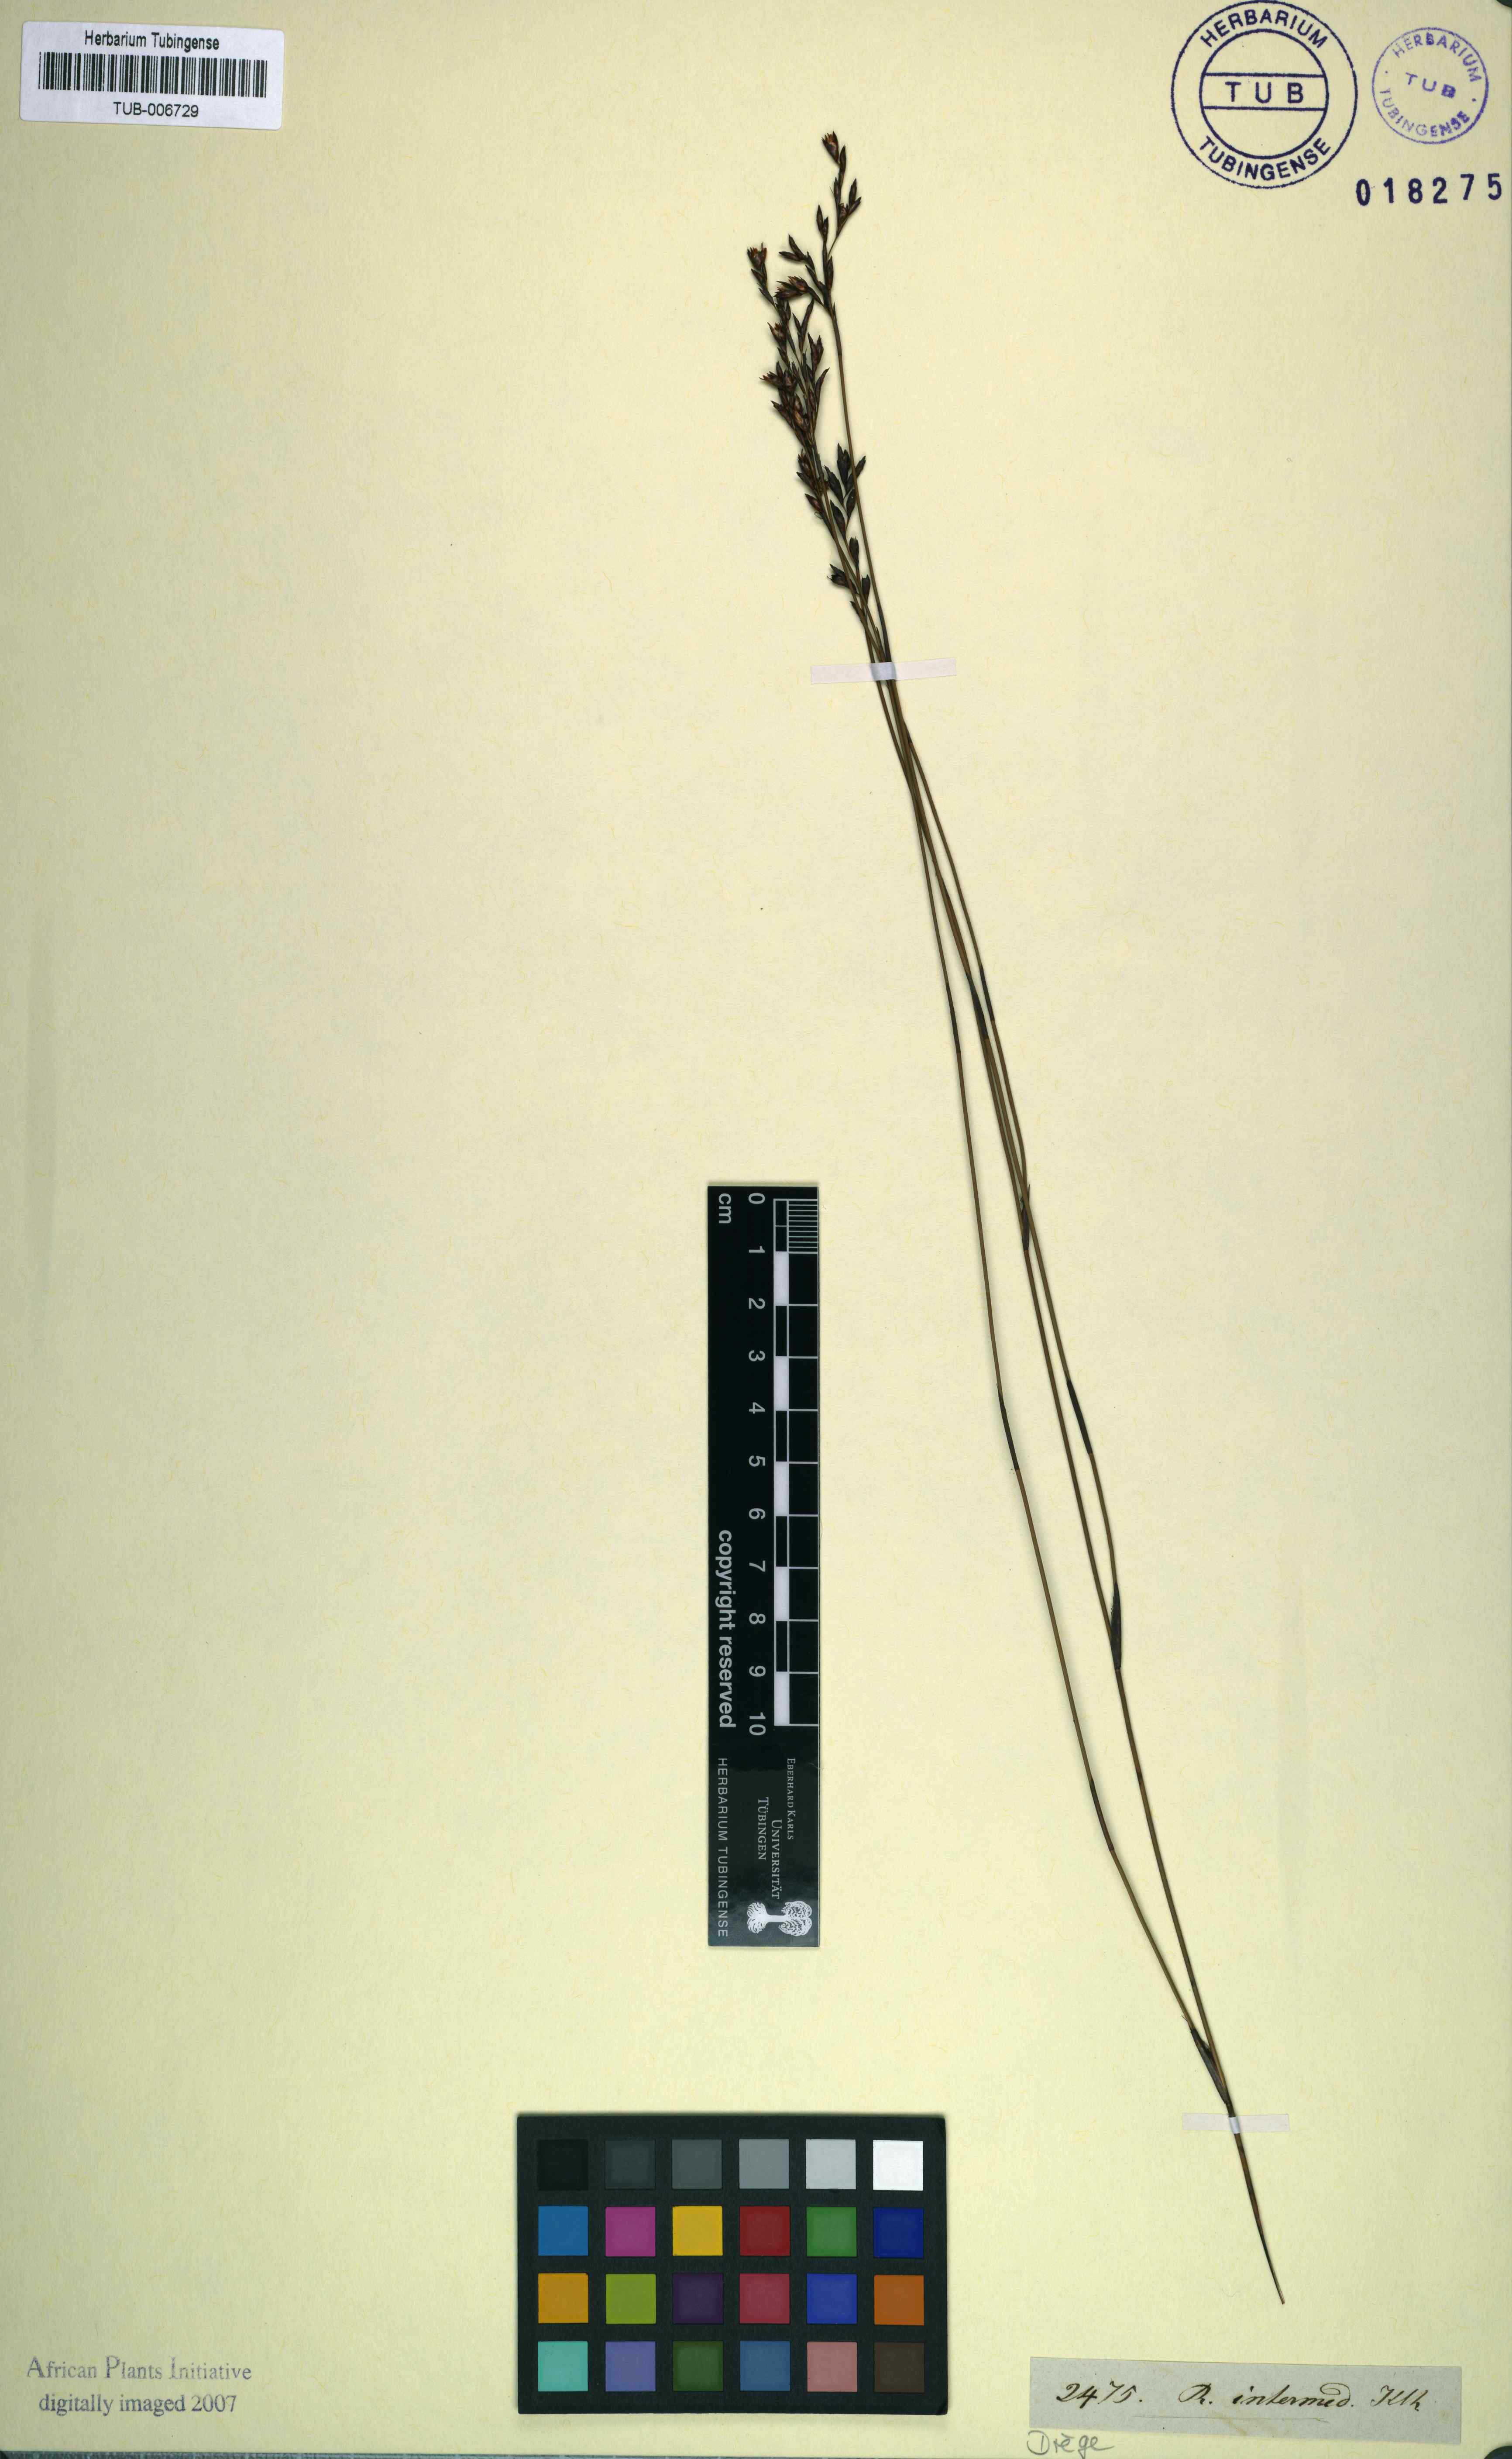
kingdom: Plantae
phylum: Tracheophyta
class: Liliopsida
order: Poales
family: Restionaceae
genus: Restio
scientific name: Restio sieberi
